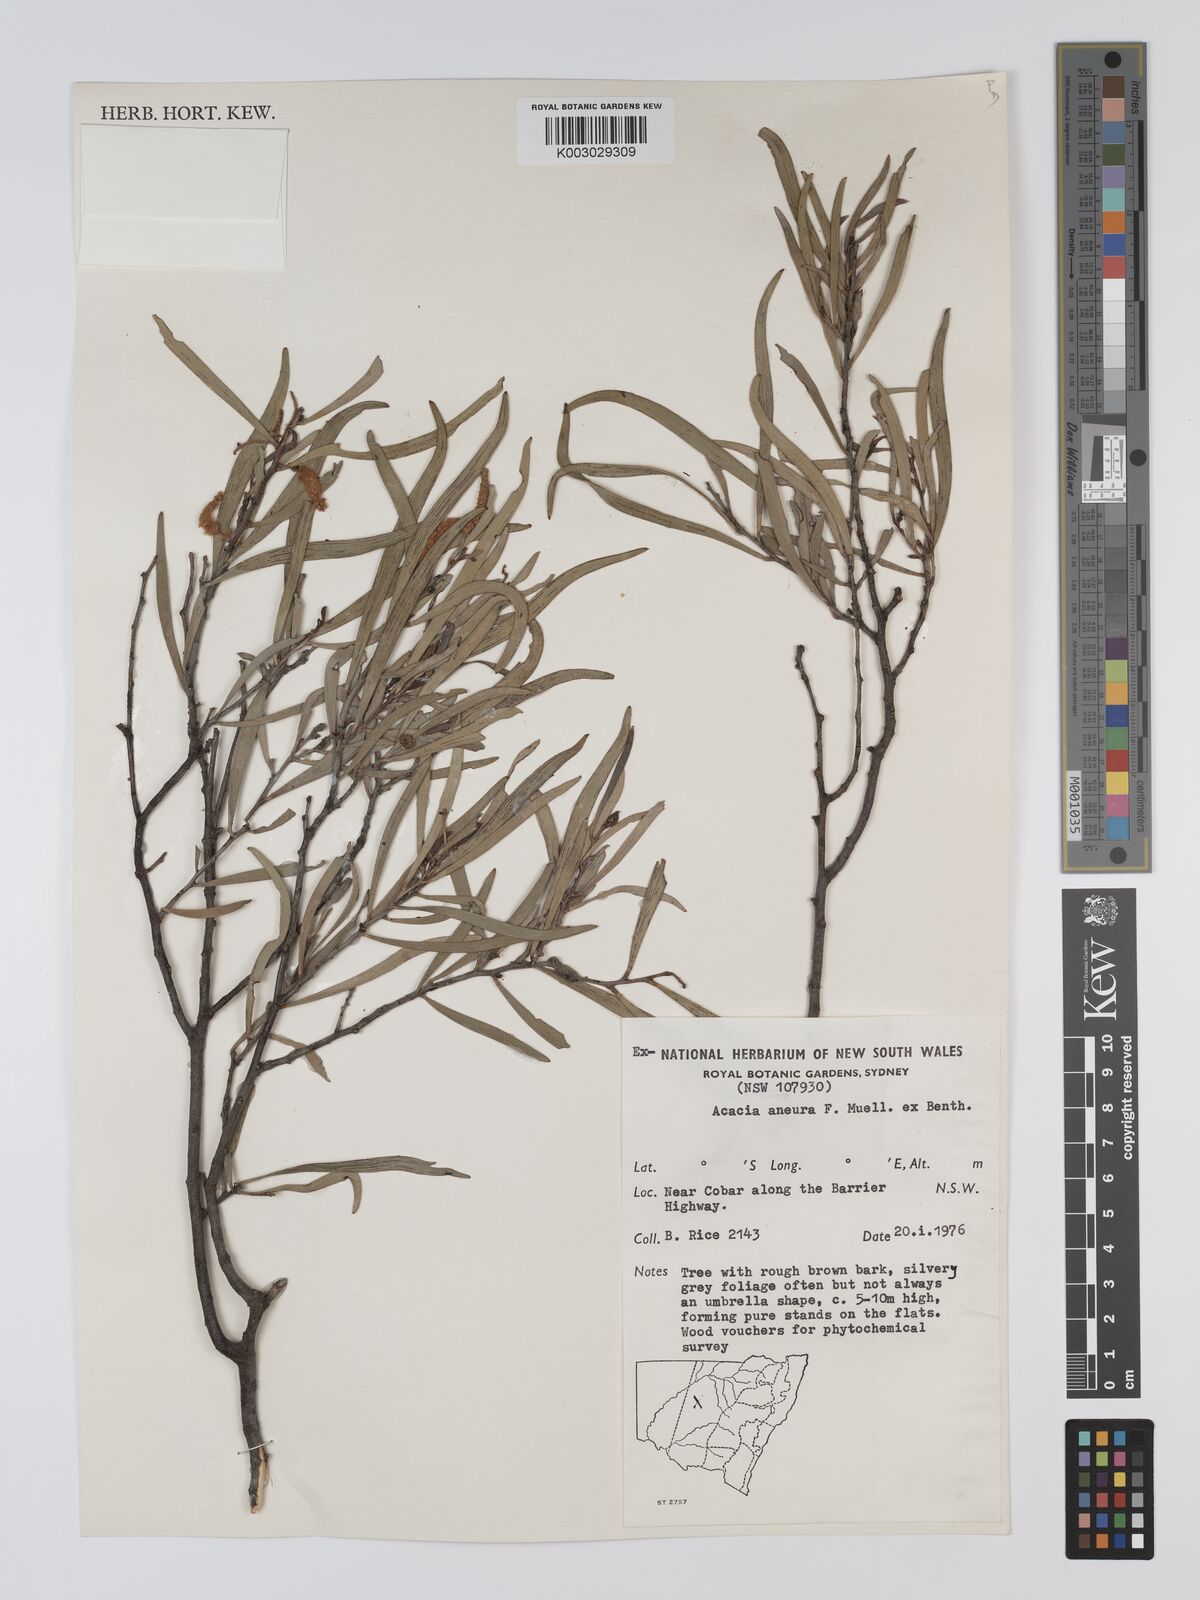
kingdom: Plantae
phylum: Tracheophyta
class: Magnoliopsida
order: Fabales
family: Fabaceae
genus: Acacia
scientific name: Acacia aneura
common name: Mulga
